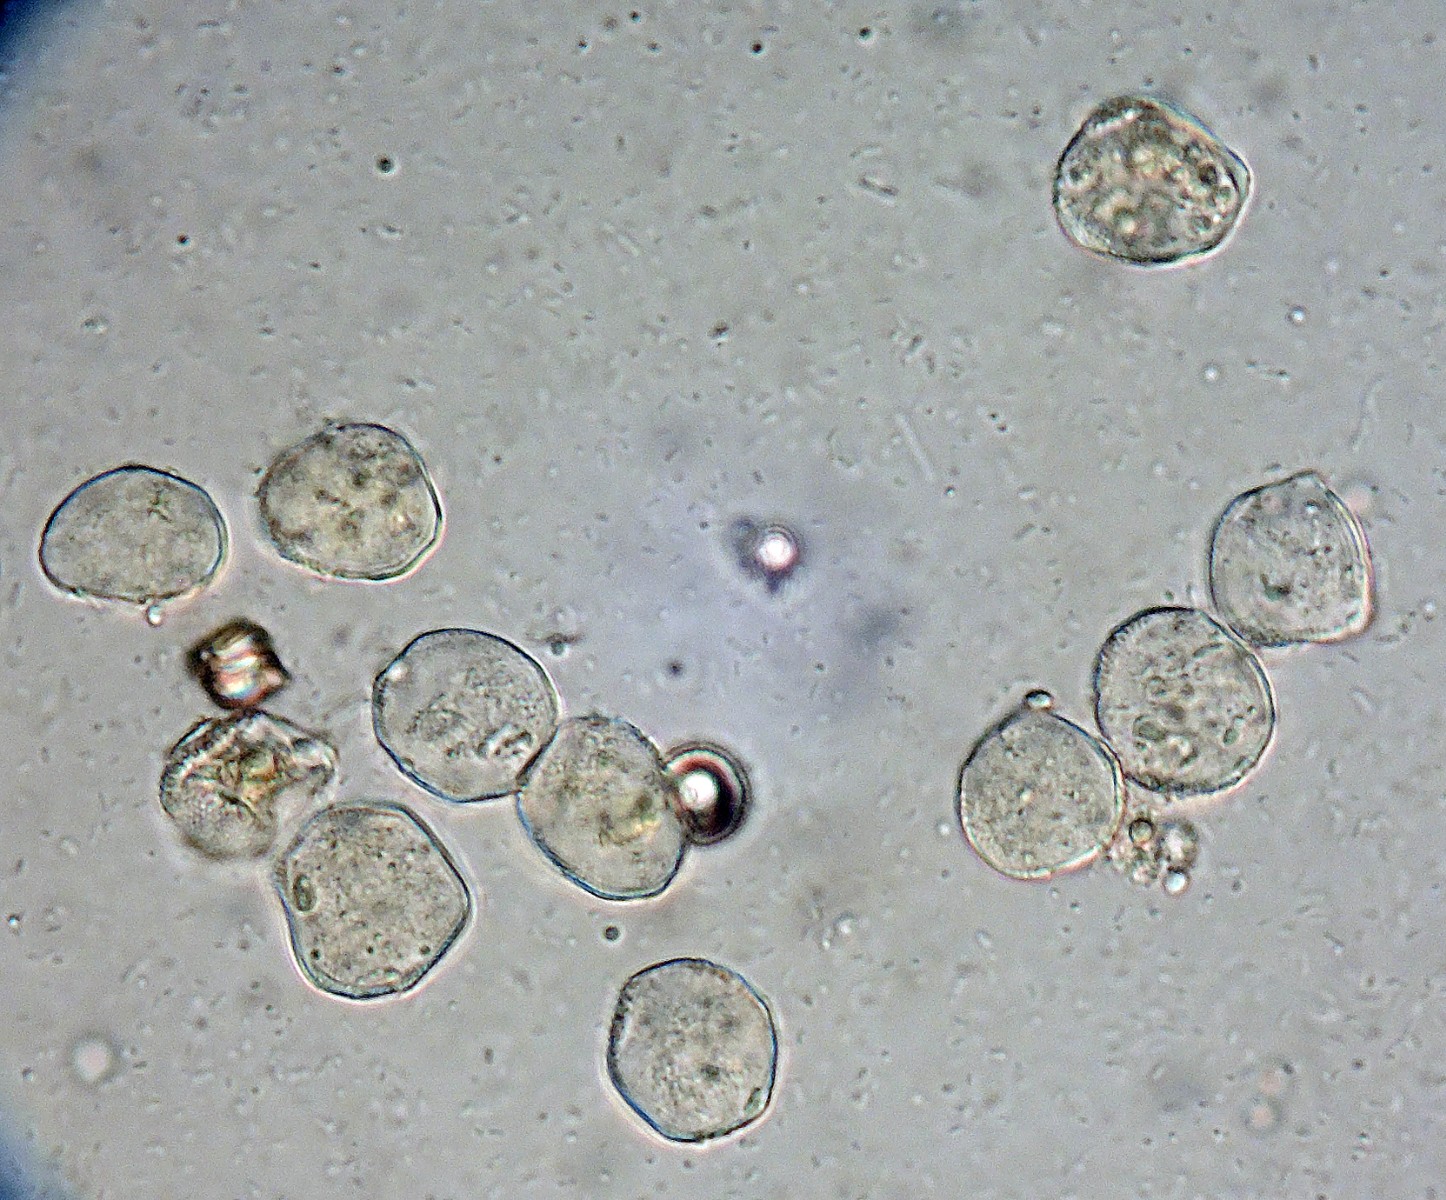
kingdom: Fungi
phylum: Basidiomycota
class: Pucciniomycetes
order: Pucciniales
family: Pucciniaceae
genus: Puccinia
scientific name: Puccinia distincta
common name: Daisy rust
